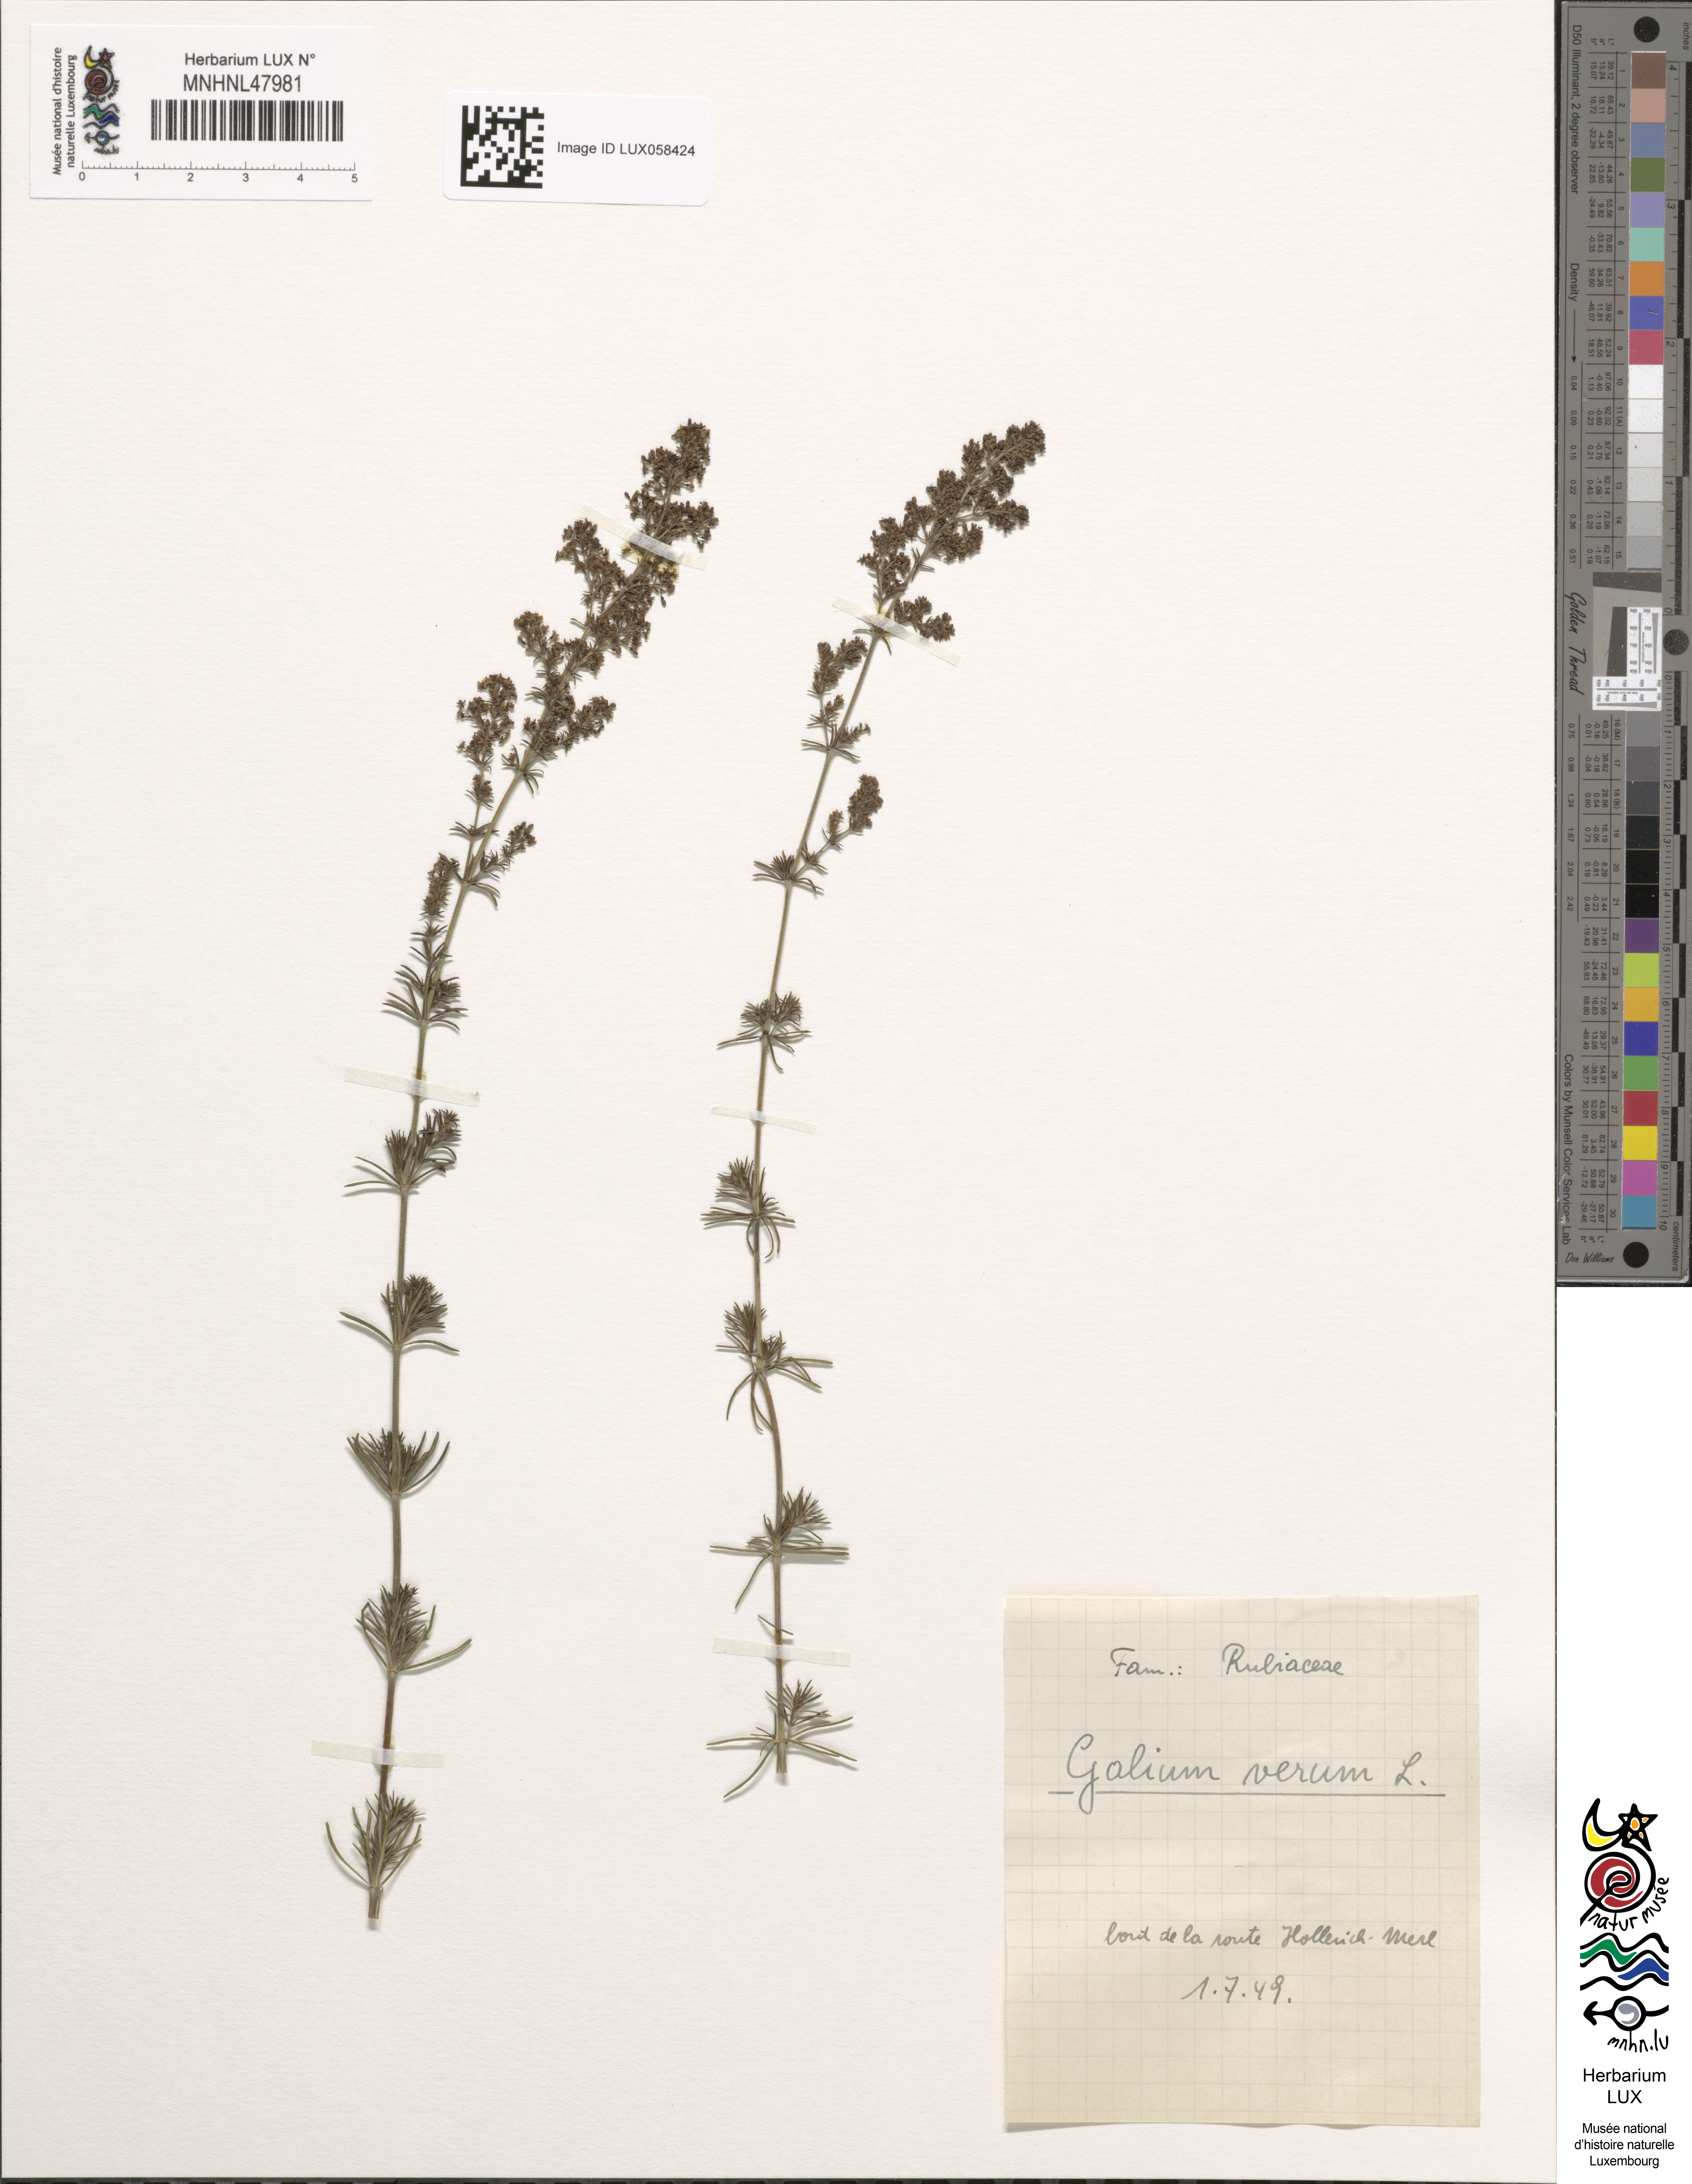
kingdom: Plantae
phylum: Tracheophyta
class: Magnoliopsida
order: Gentianales
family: Rubiaceae
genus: Galium
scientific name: Galium verum
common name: Lady's bedstraw
